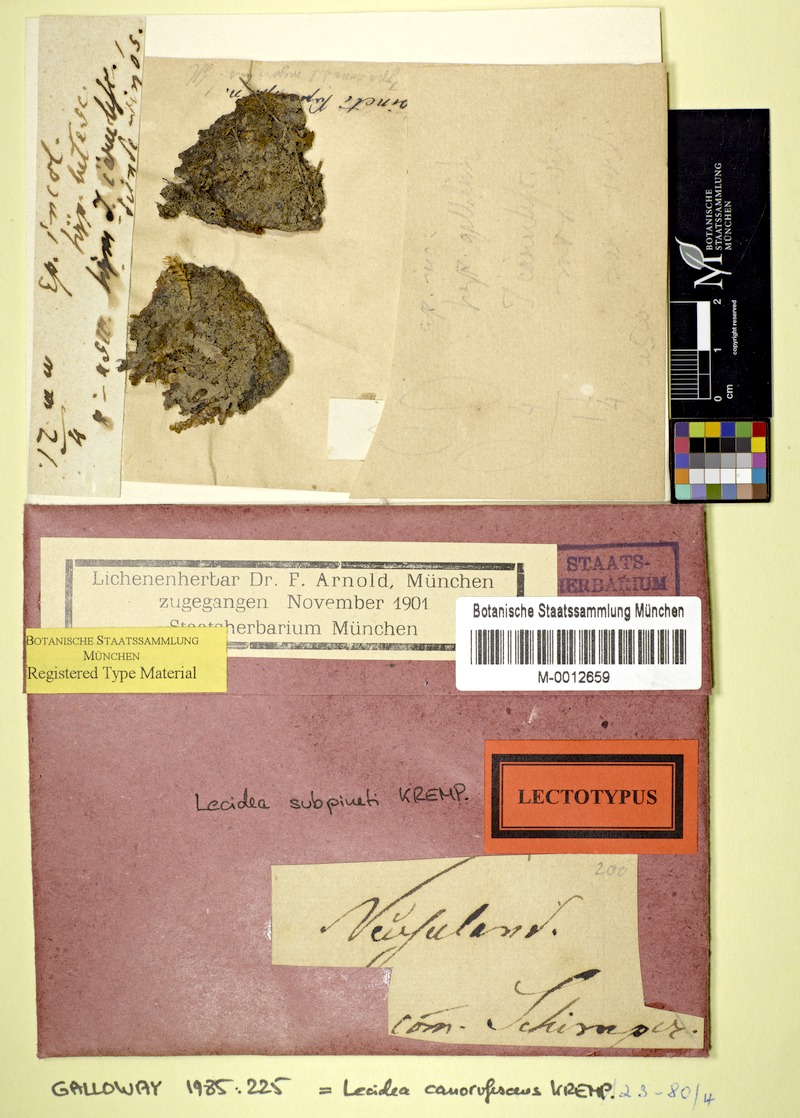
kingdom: Fungi
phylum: Ascomycota
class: Lecanoromycetes
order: Lecanorales
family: Malmideaceae
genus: Australidea
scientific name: Australidea canorufescens
